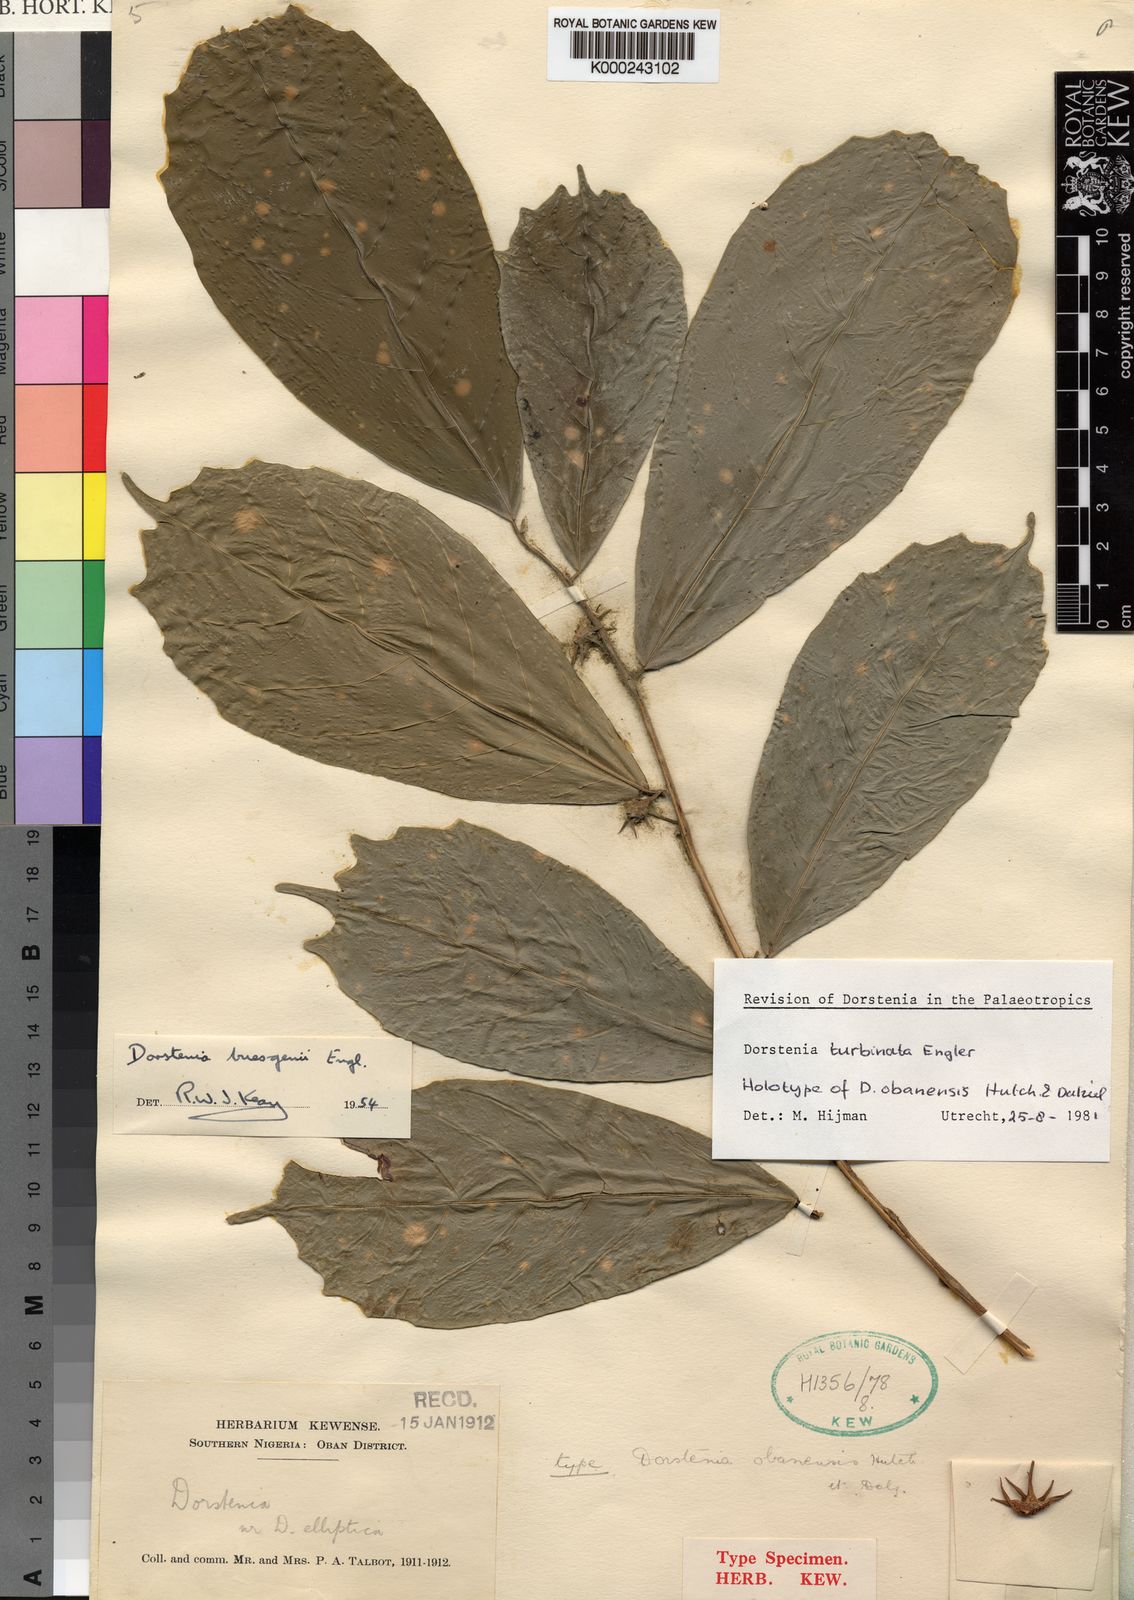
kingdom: Plantae
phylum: Tracheophyta
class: Magnoliopsida
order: Rosales
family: Moraceae
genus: Hijmania
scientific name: Hijmania turbinata
